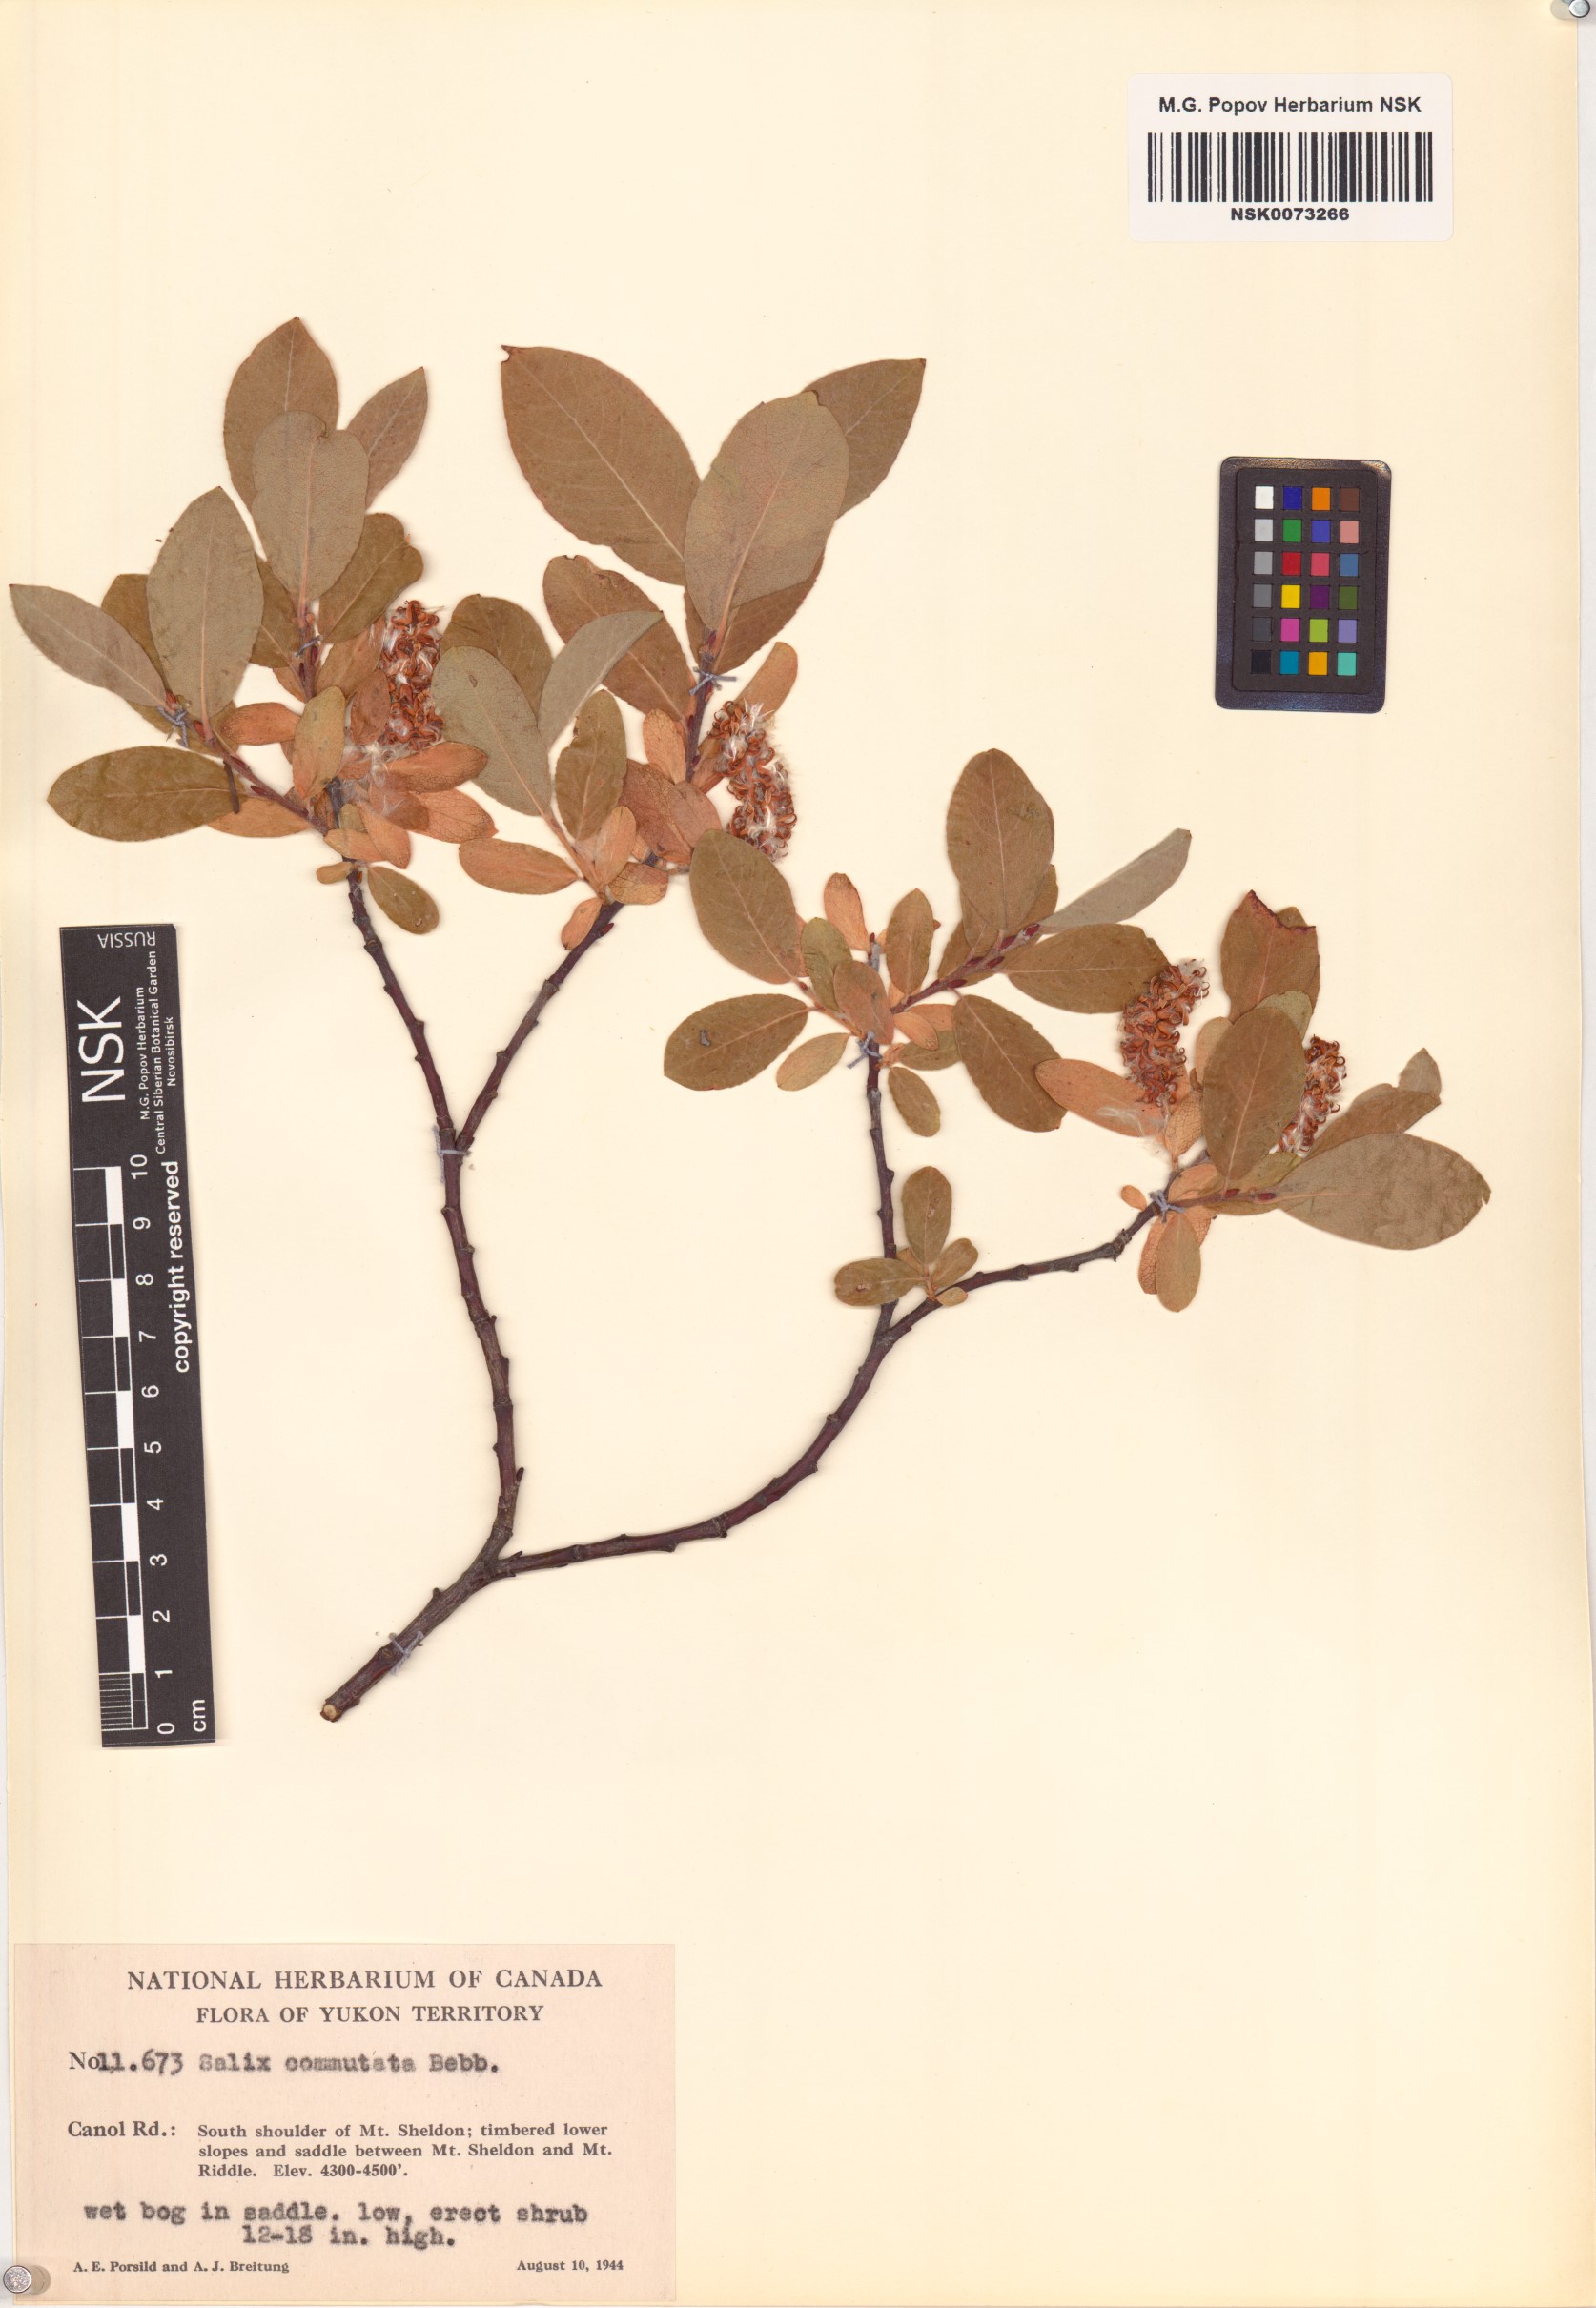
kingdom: Plantae
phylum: Tracheophyta
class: Magnoliopsida
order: Malpighiales
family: Salicaceae
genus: Salix
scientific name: Salix commutata
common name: Under-green willow
